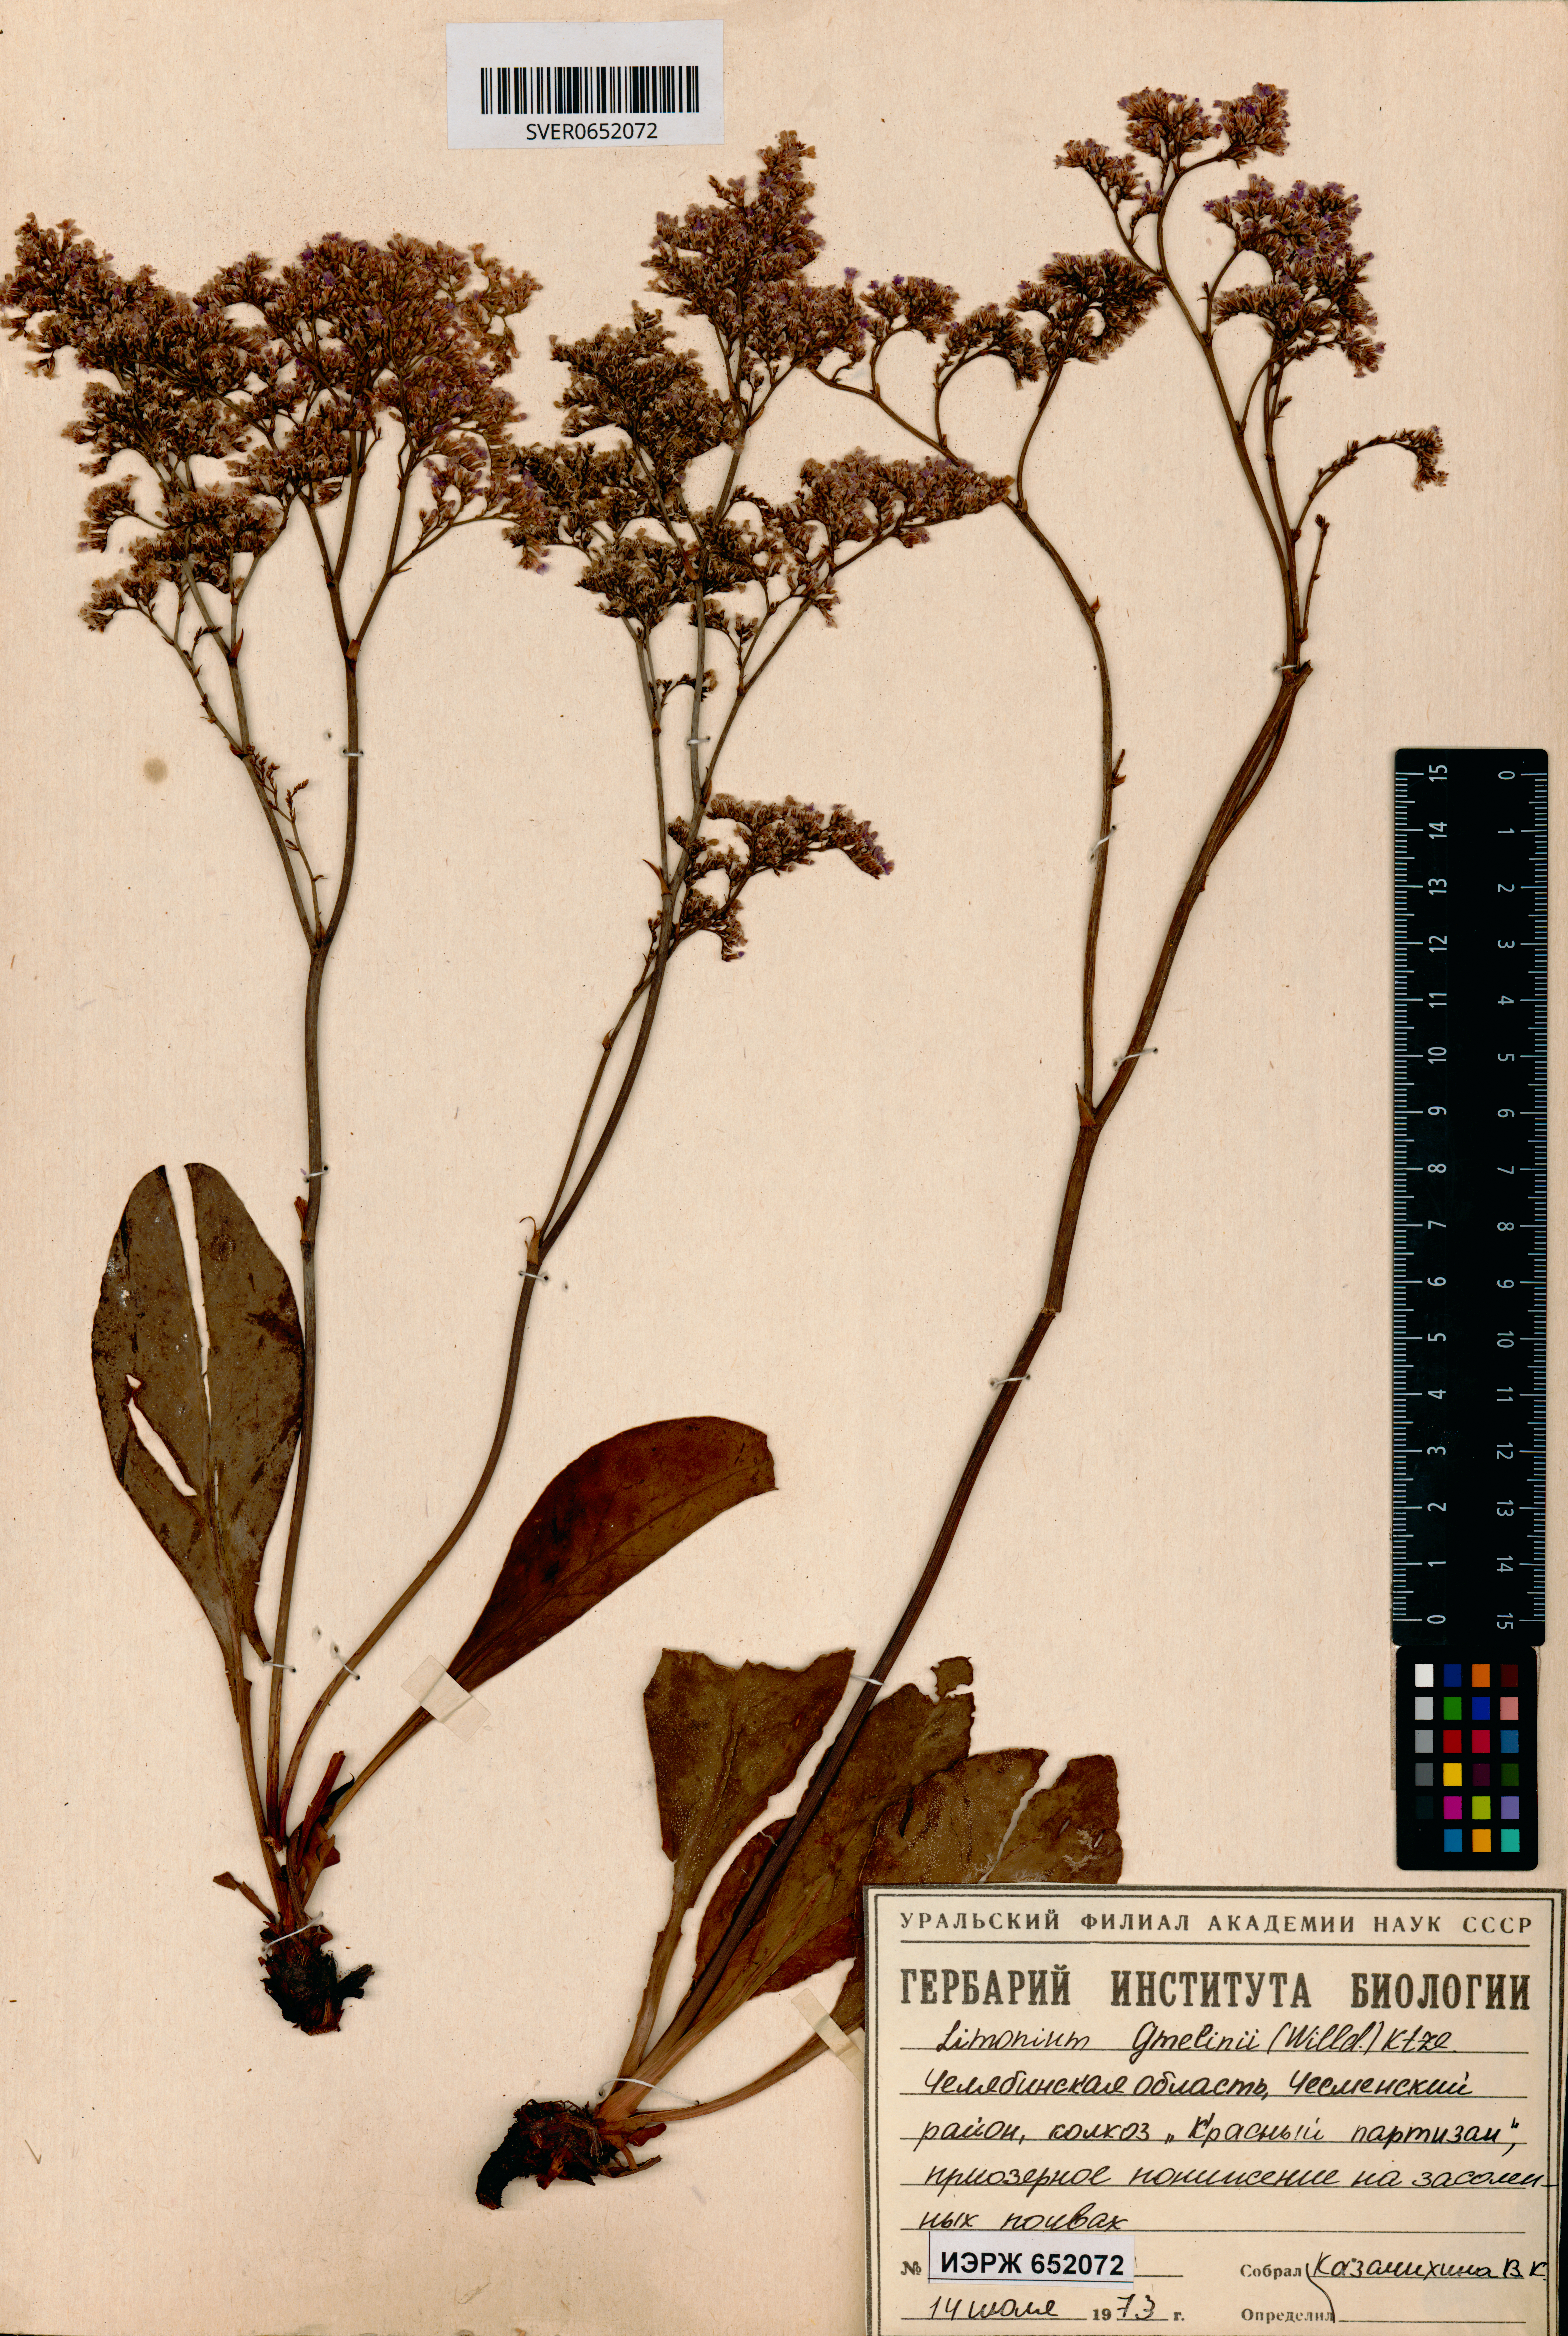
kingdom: Plantae
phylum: Tracheophyta
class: Magnoliopsida
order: Caryophyllales
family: Plumbaginaceae
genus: Limonium
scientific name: Limonium gmelini
